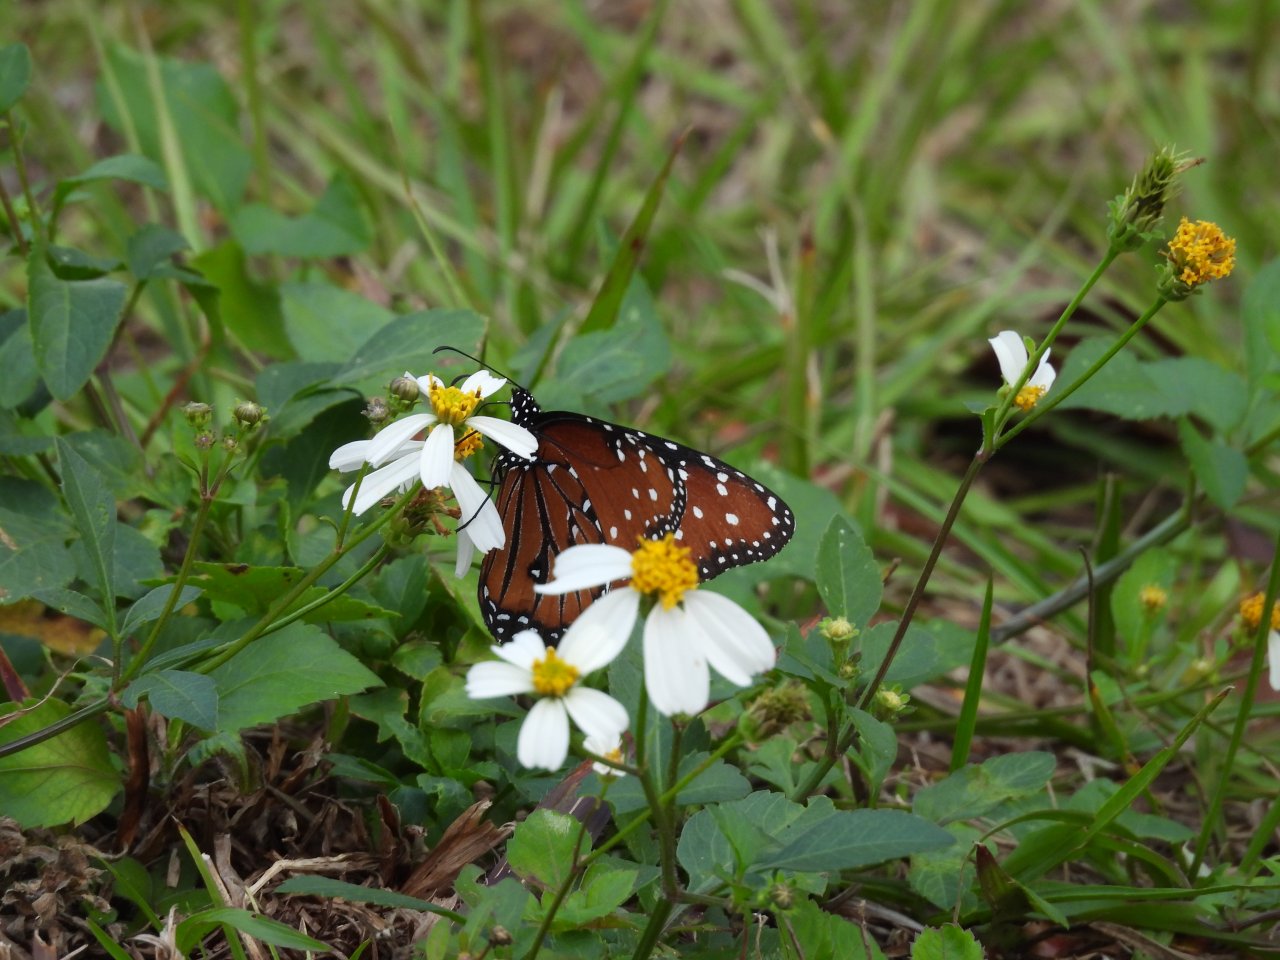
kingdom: Animalia
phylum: Arthropoda
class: Insecta
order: Lepidoptera
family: Nymphalidae
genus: Danaus
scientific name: Danaus gilippus
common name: Queen
